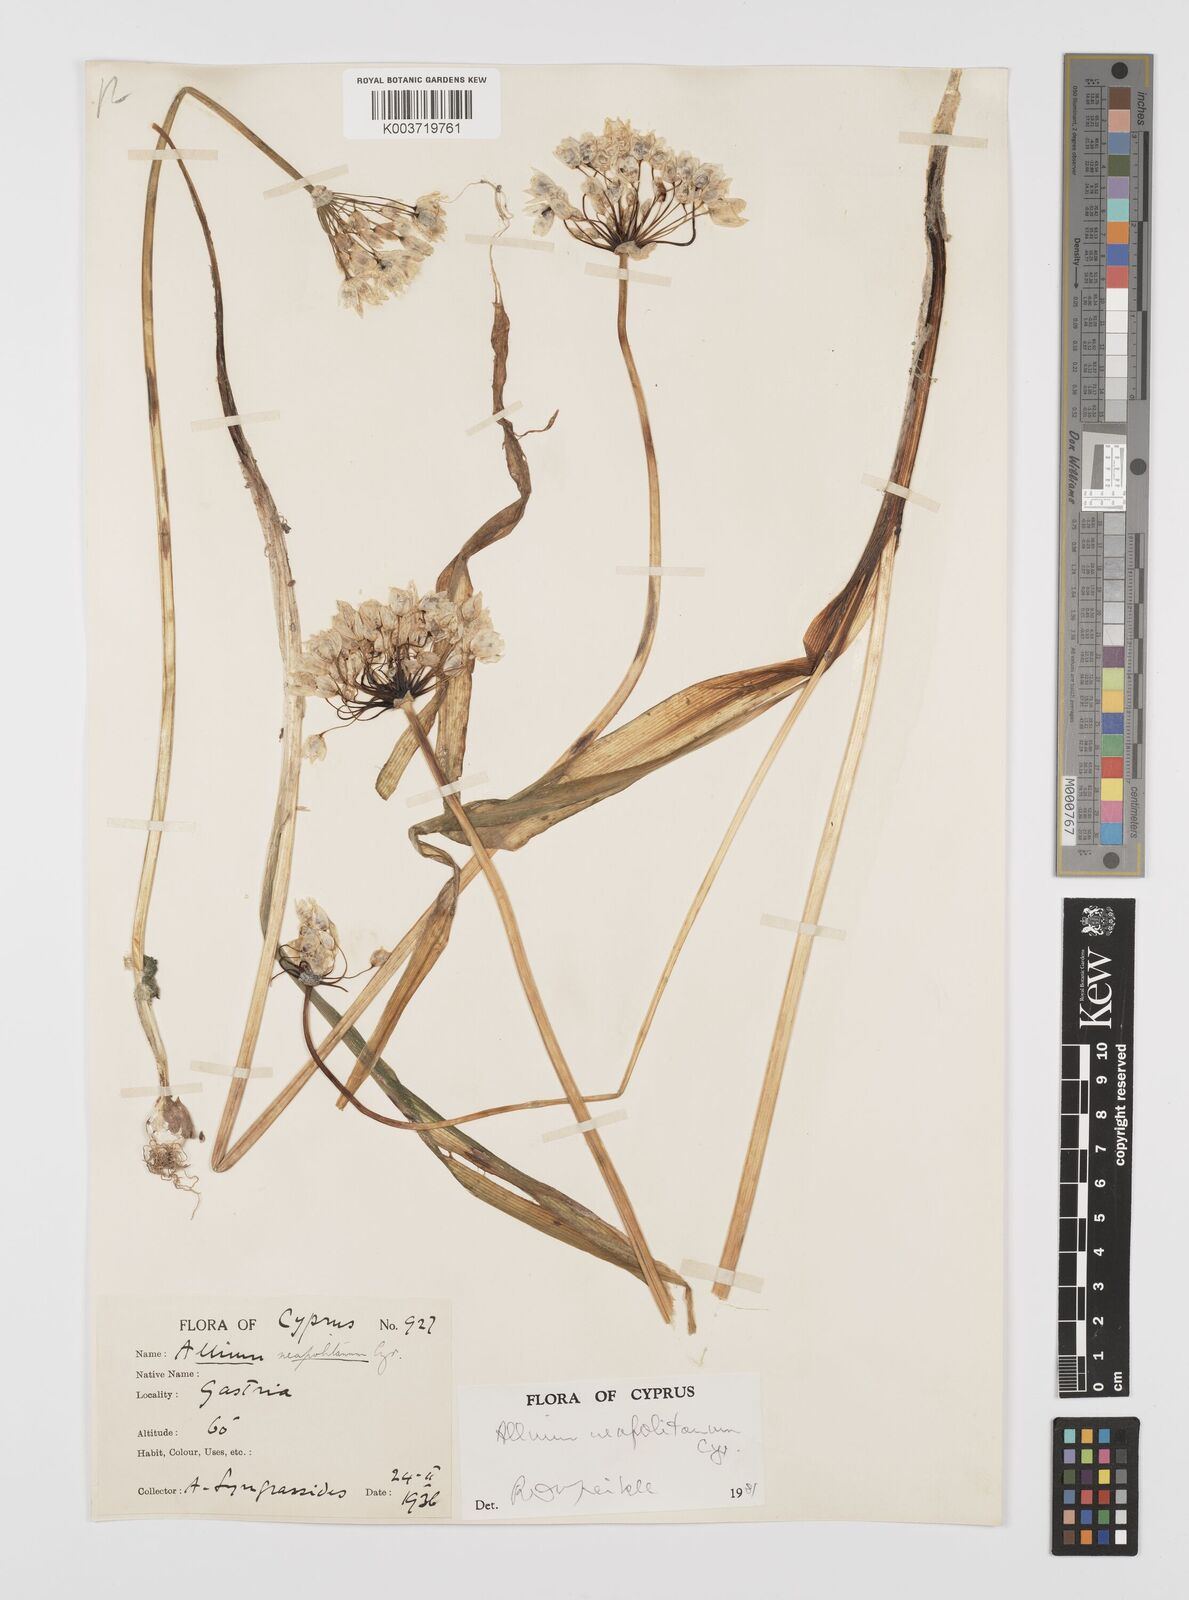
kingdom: Plantae
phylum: Tracheophyta
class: Liliopsida
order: Asparagales
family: Amaryllidaceae
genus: Allium
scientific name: Allium neapolitanum
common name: Neapolitan garlic
